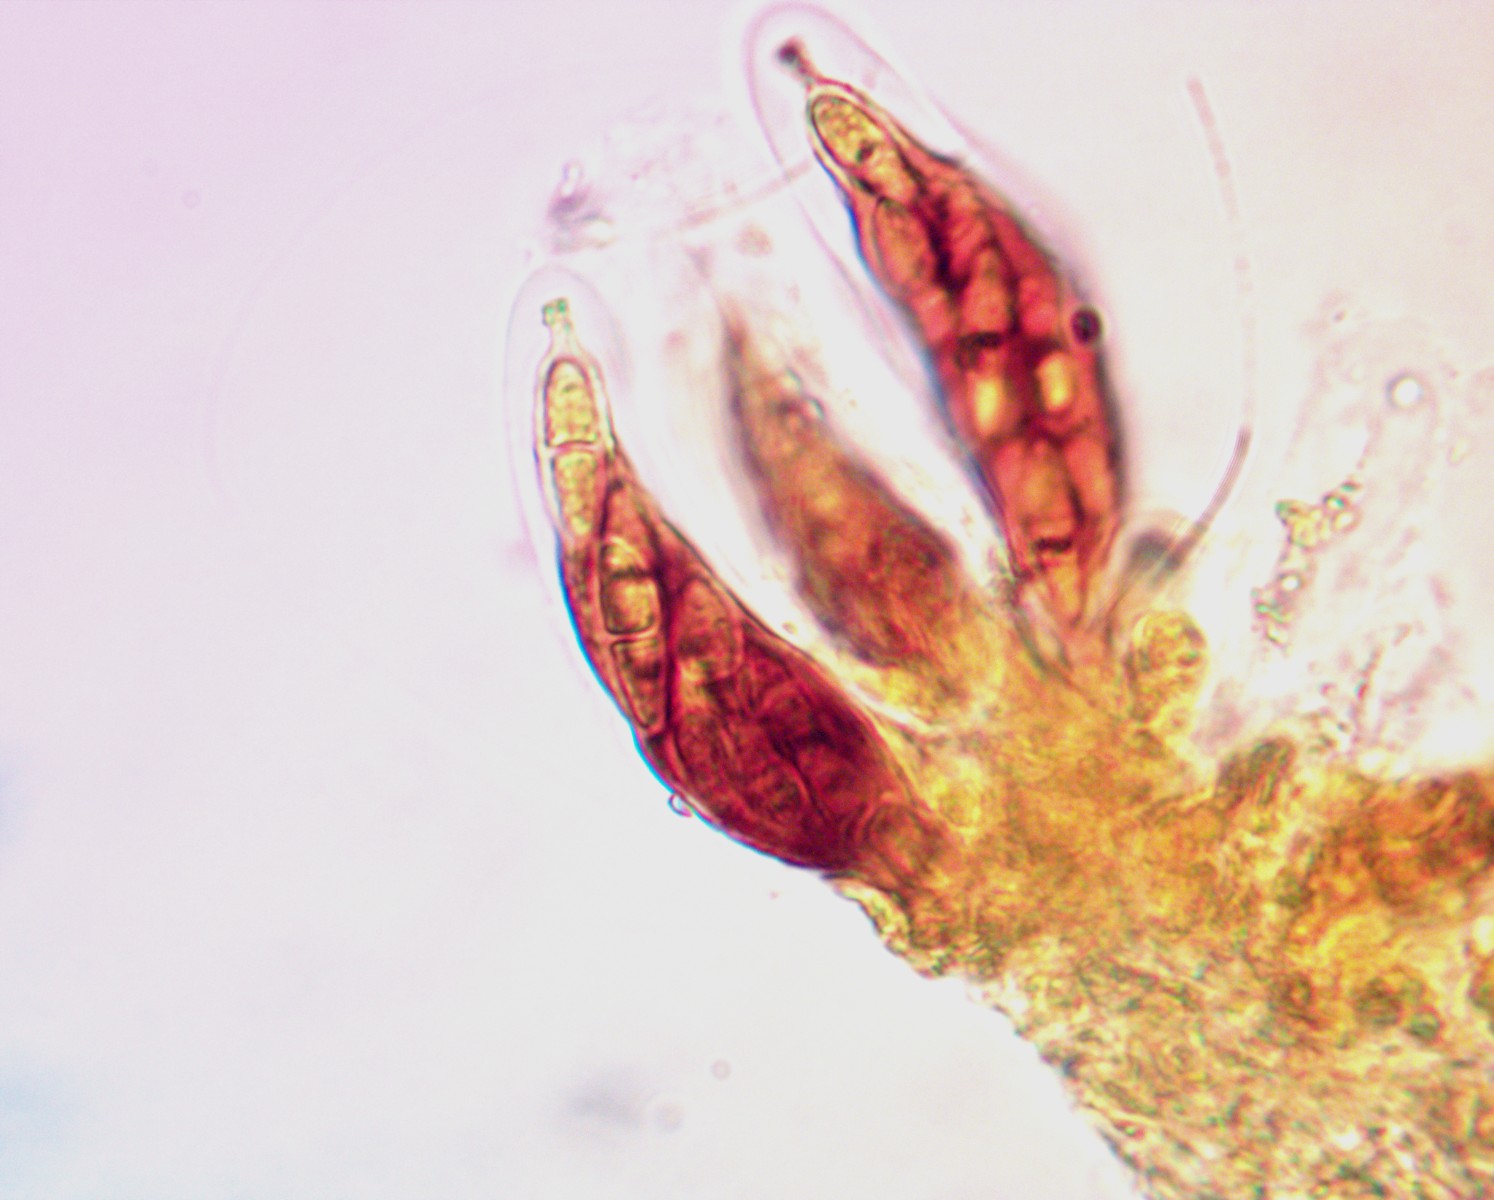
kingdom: Fungi
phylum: Ascomycota
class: Dothideomycetes
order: Capnodiales
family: Cladosporiaceae
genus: Cladosporium
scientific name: Cladosporium iridis
